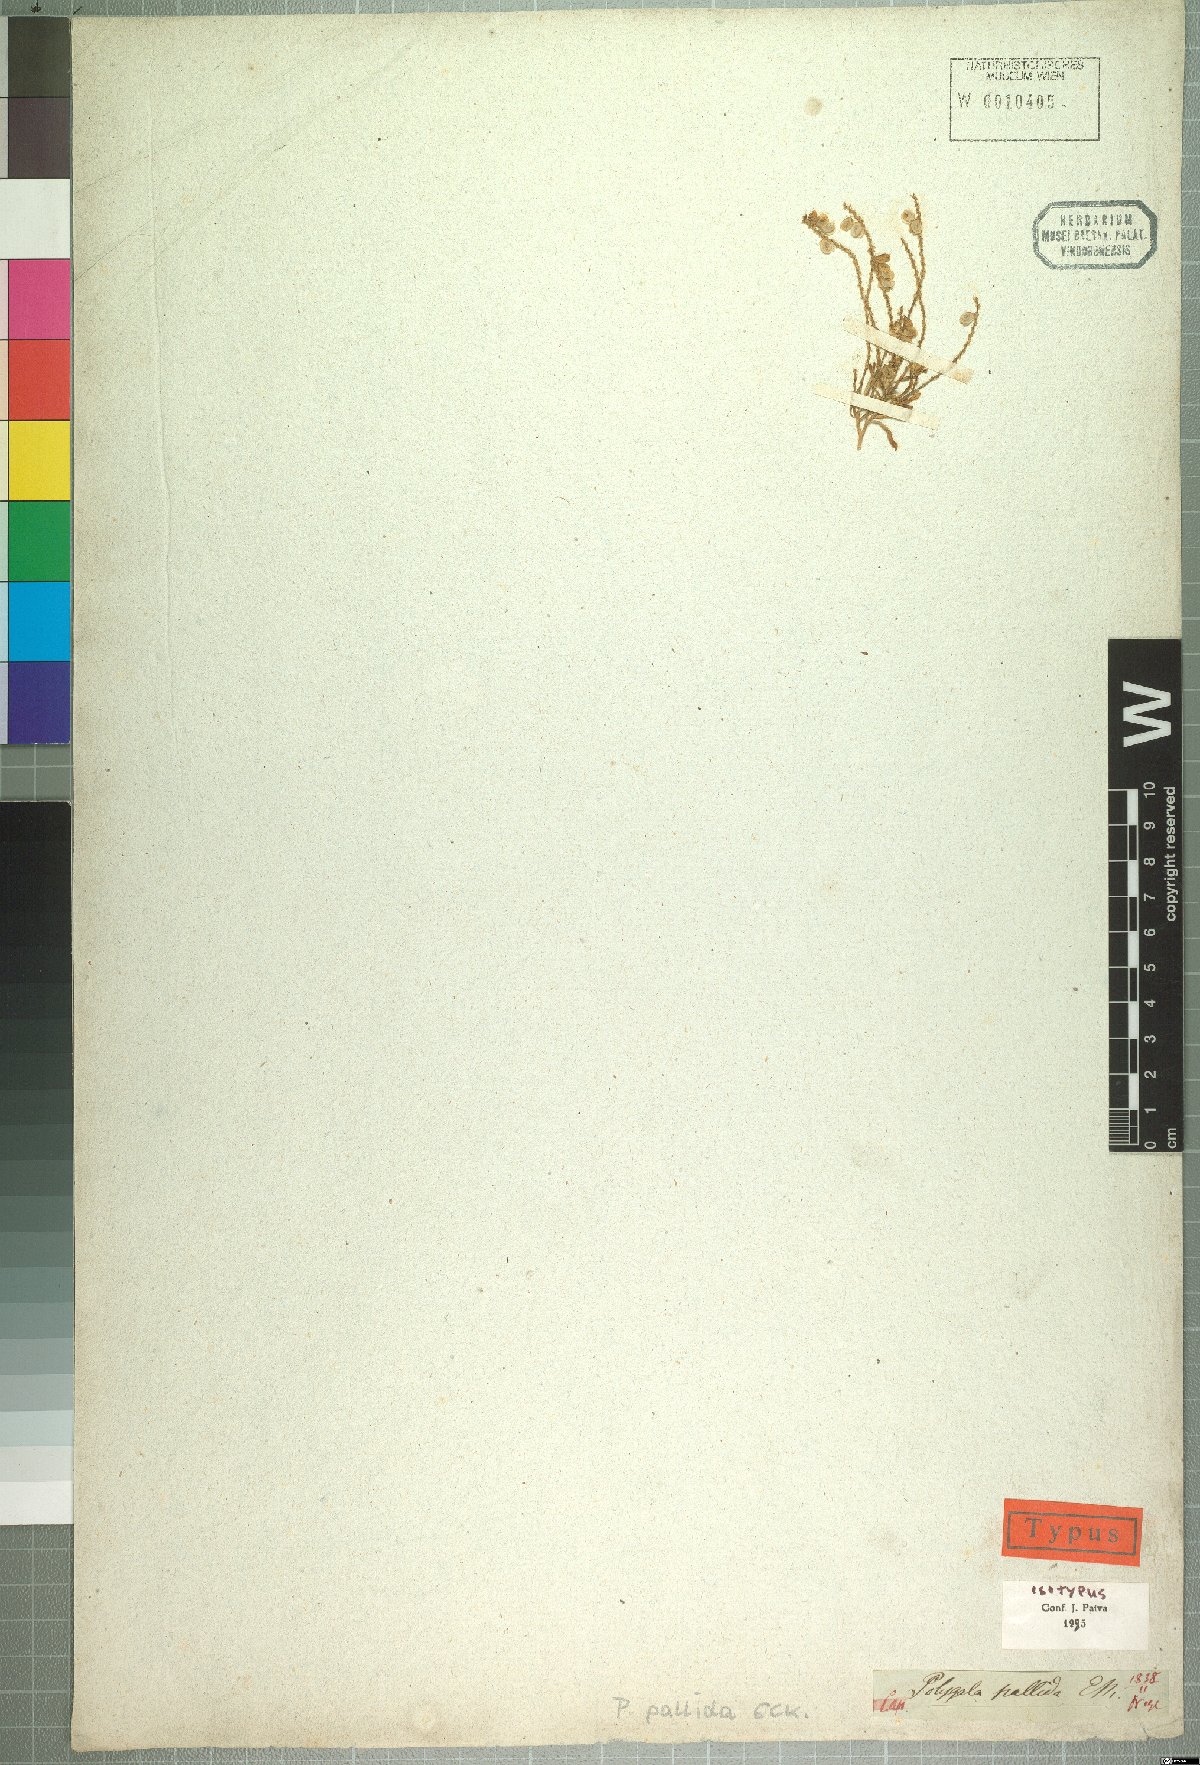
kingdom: Plantae
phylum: Tracheophyta
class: Magnoliopsida
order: Fabales
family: Polygalaceae
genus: Polygala
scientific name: Polygala pallida
